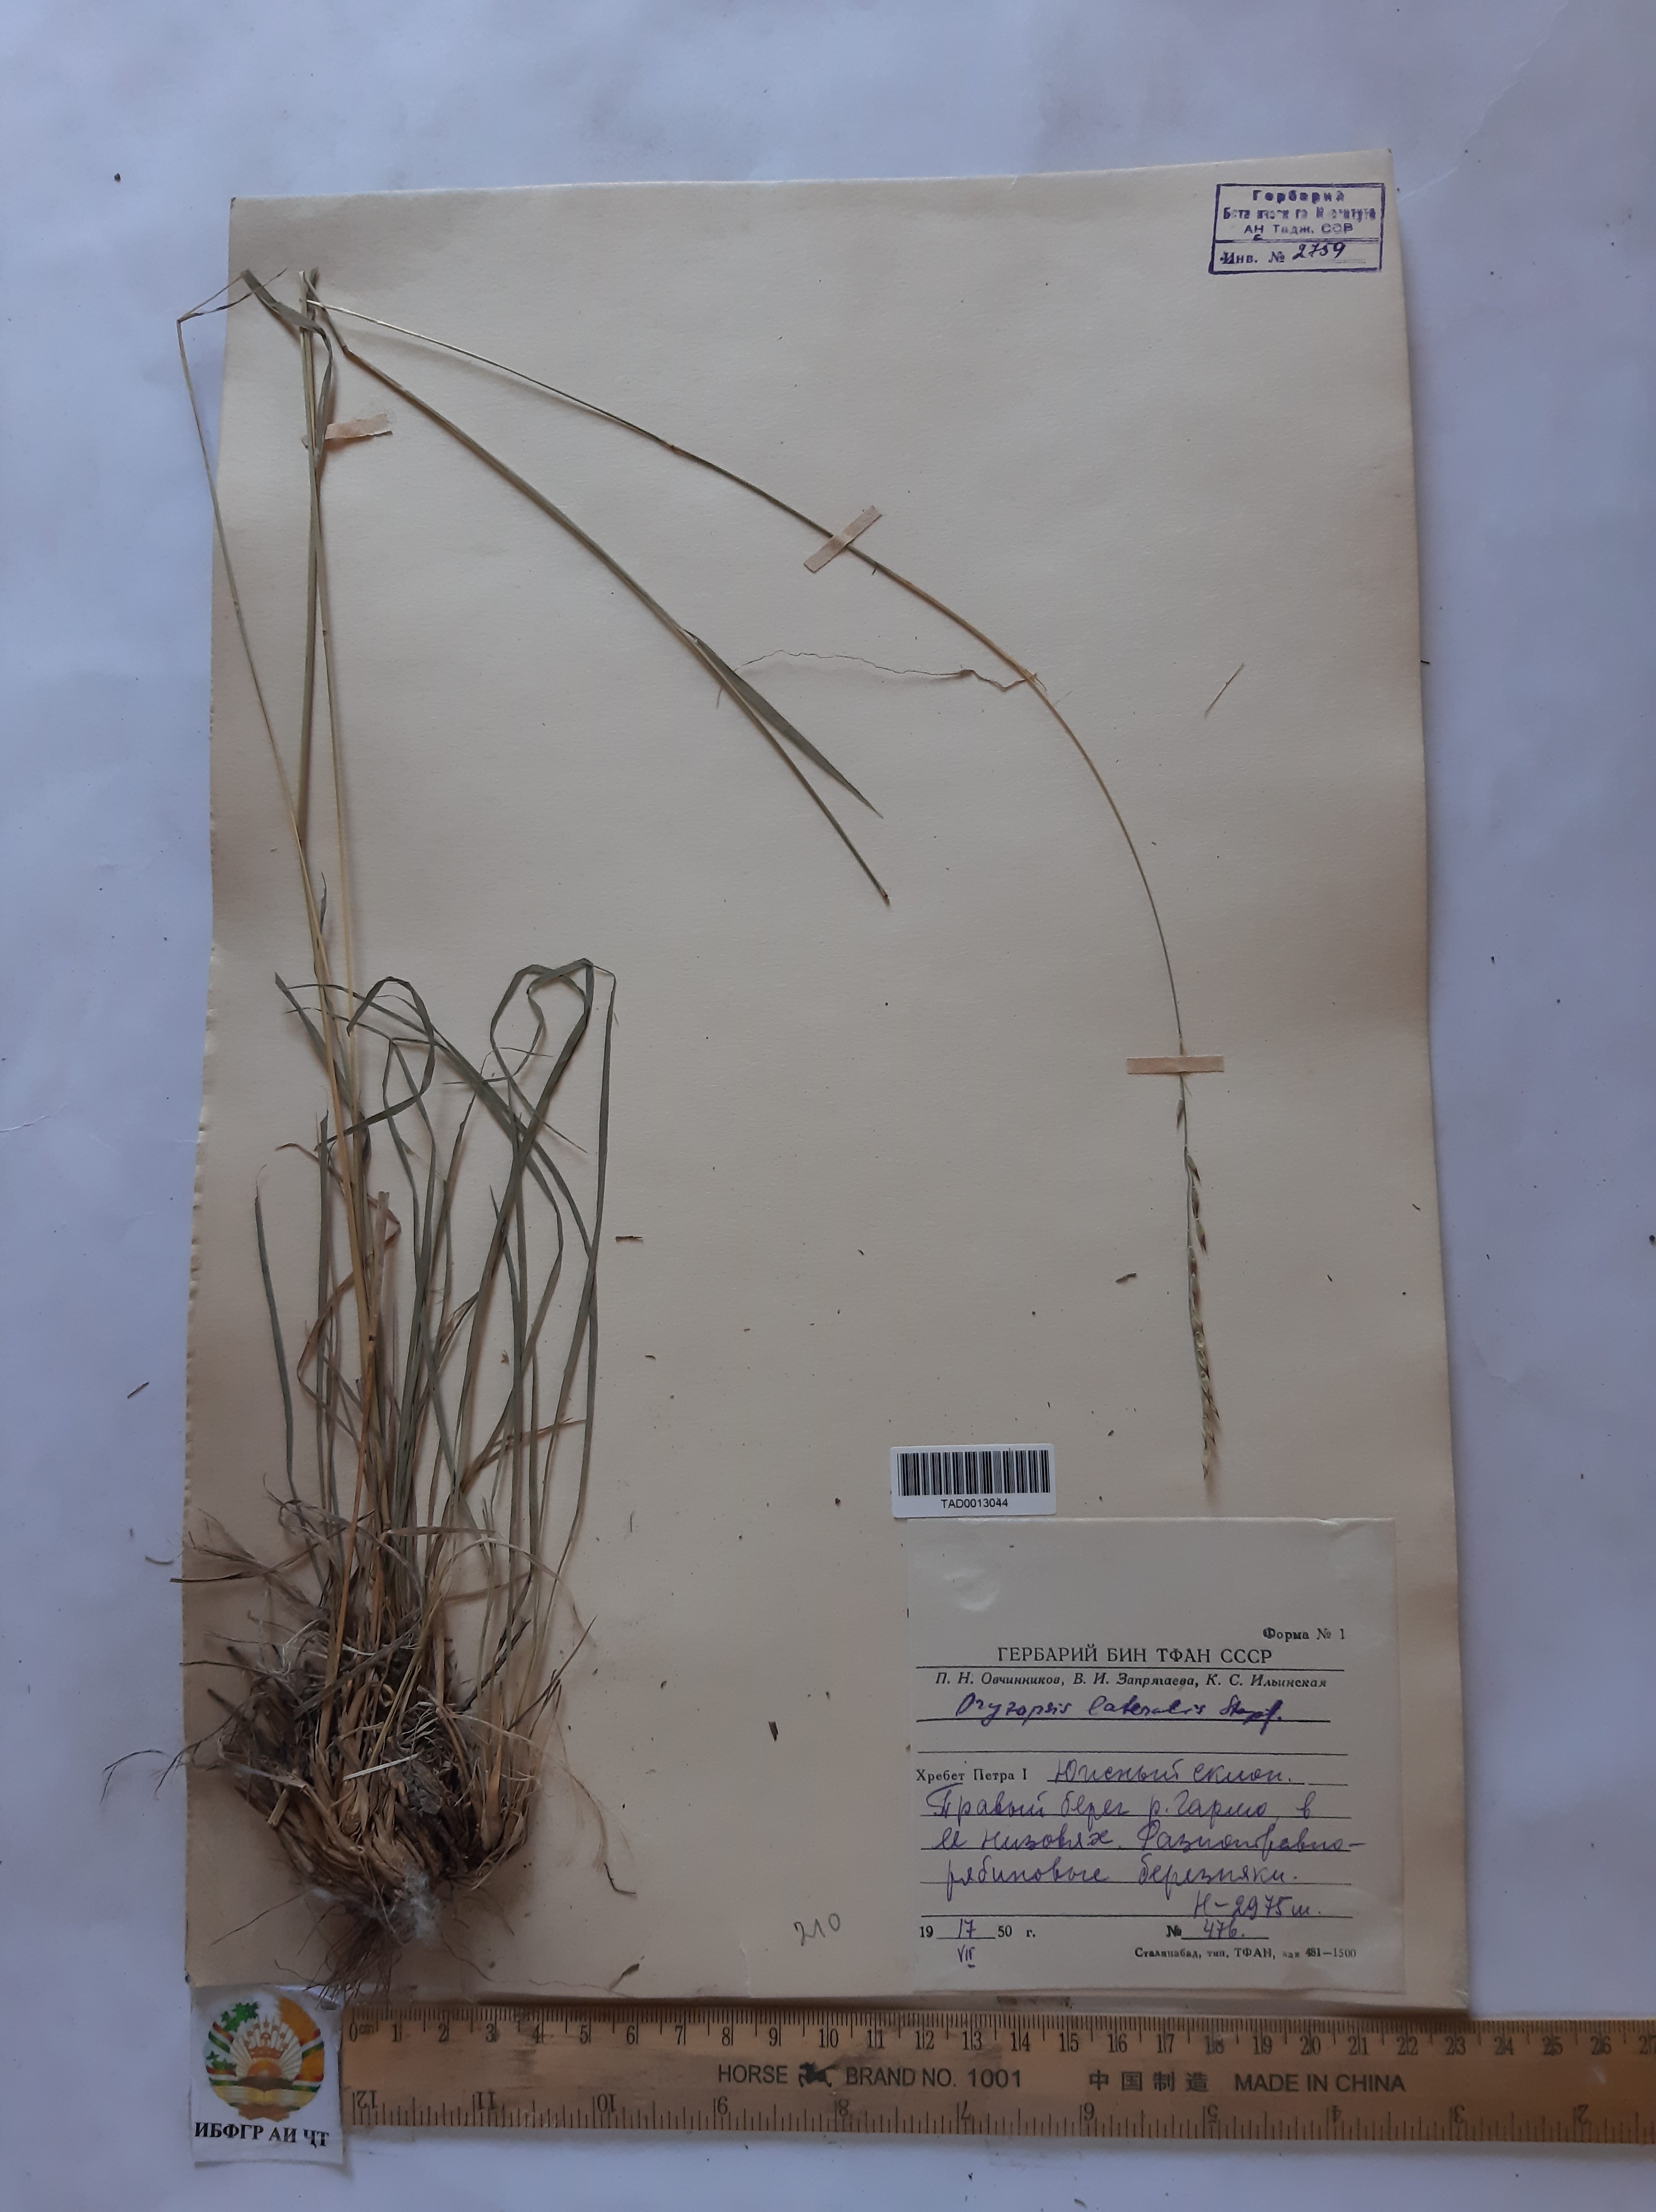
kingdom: Plantae
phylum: Tracheophyta
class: Liliopsida
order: Poales
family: Poaceae
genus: Piptatherum
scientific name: Piptatherum laterale
